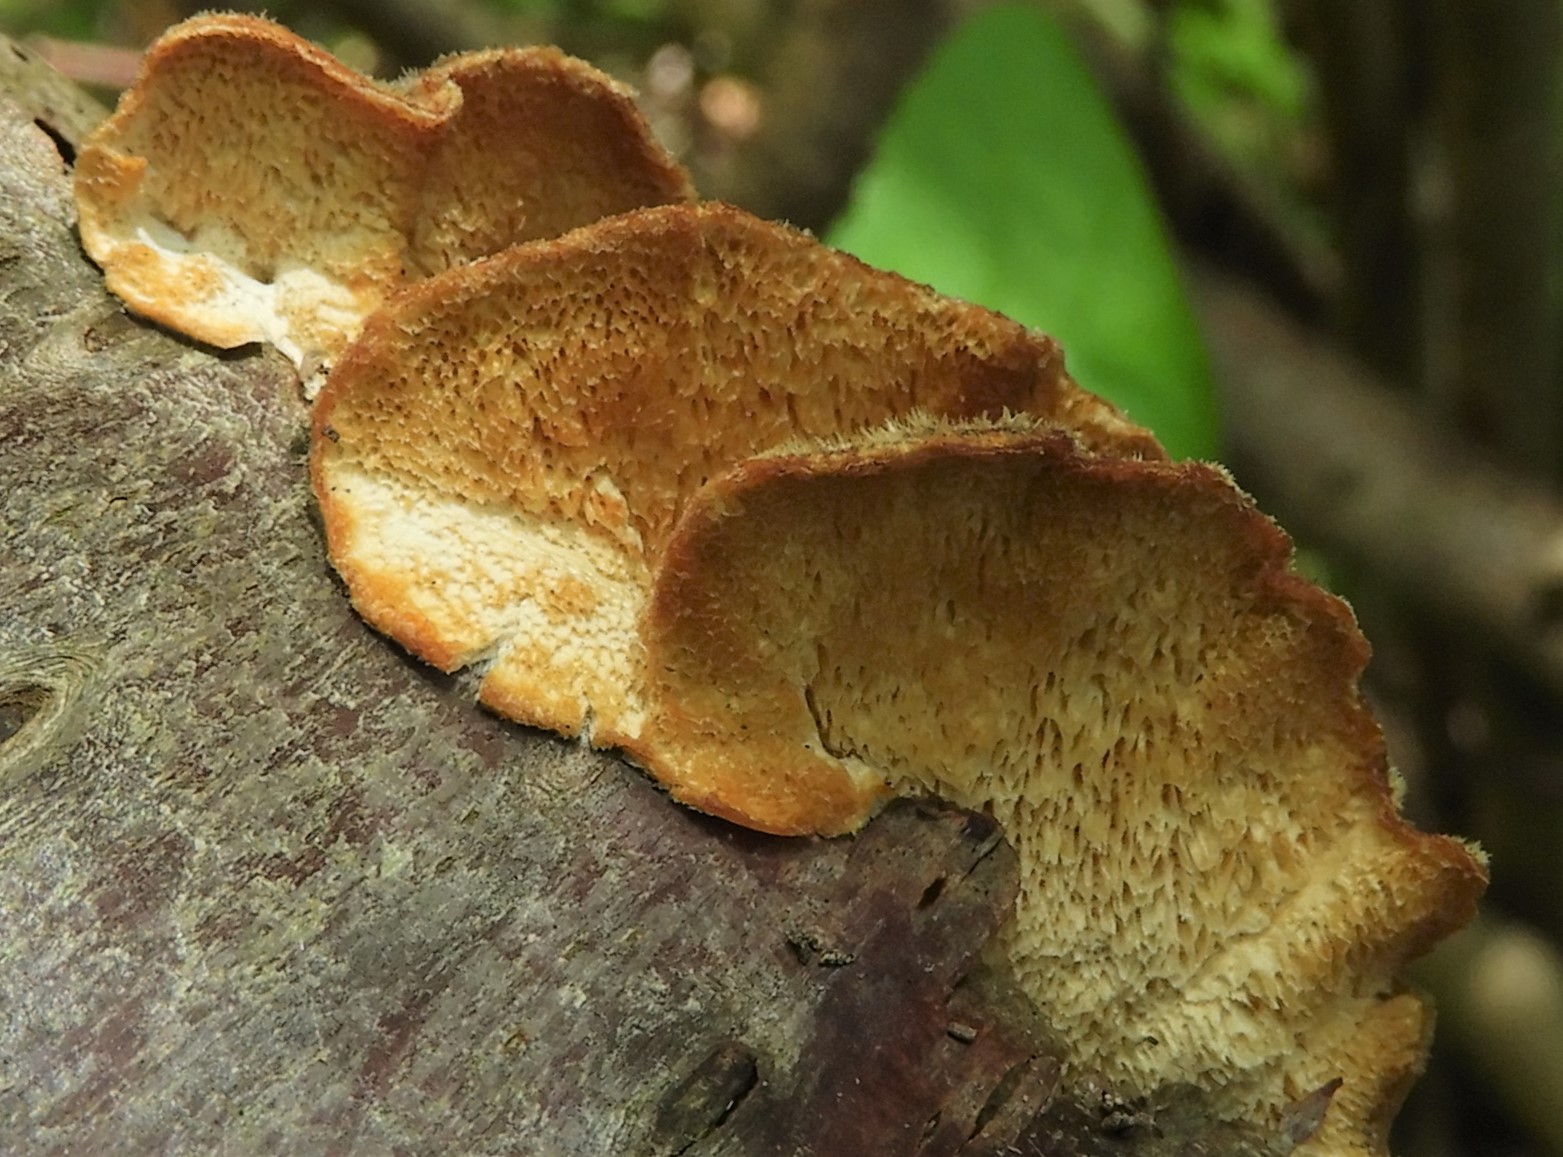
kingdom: Fungi
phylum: Basidiomycota
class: Agaricomycetes
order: Polyporales
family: Polyporaceae
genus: Trametes
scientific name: Trametes versicolor
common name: broget læderporesvamp
